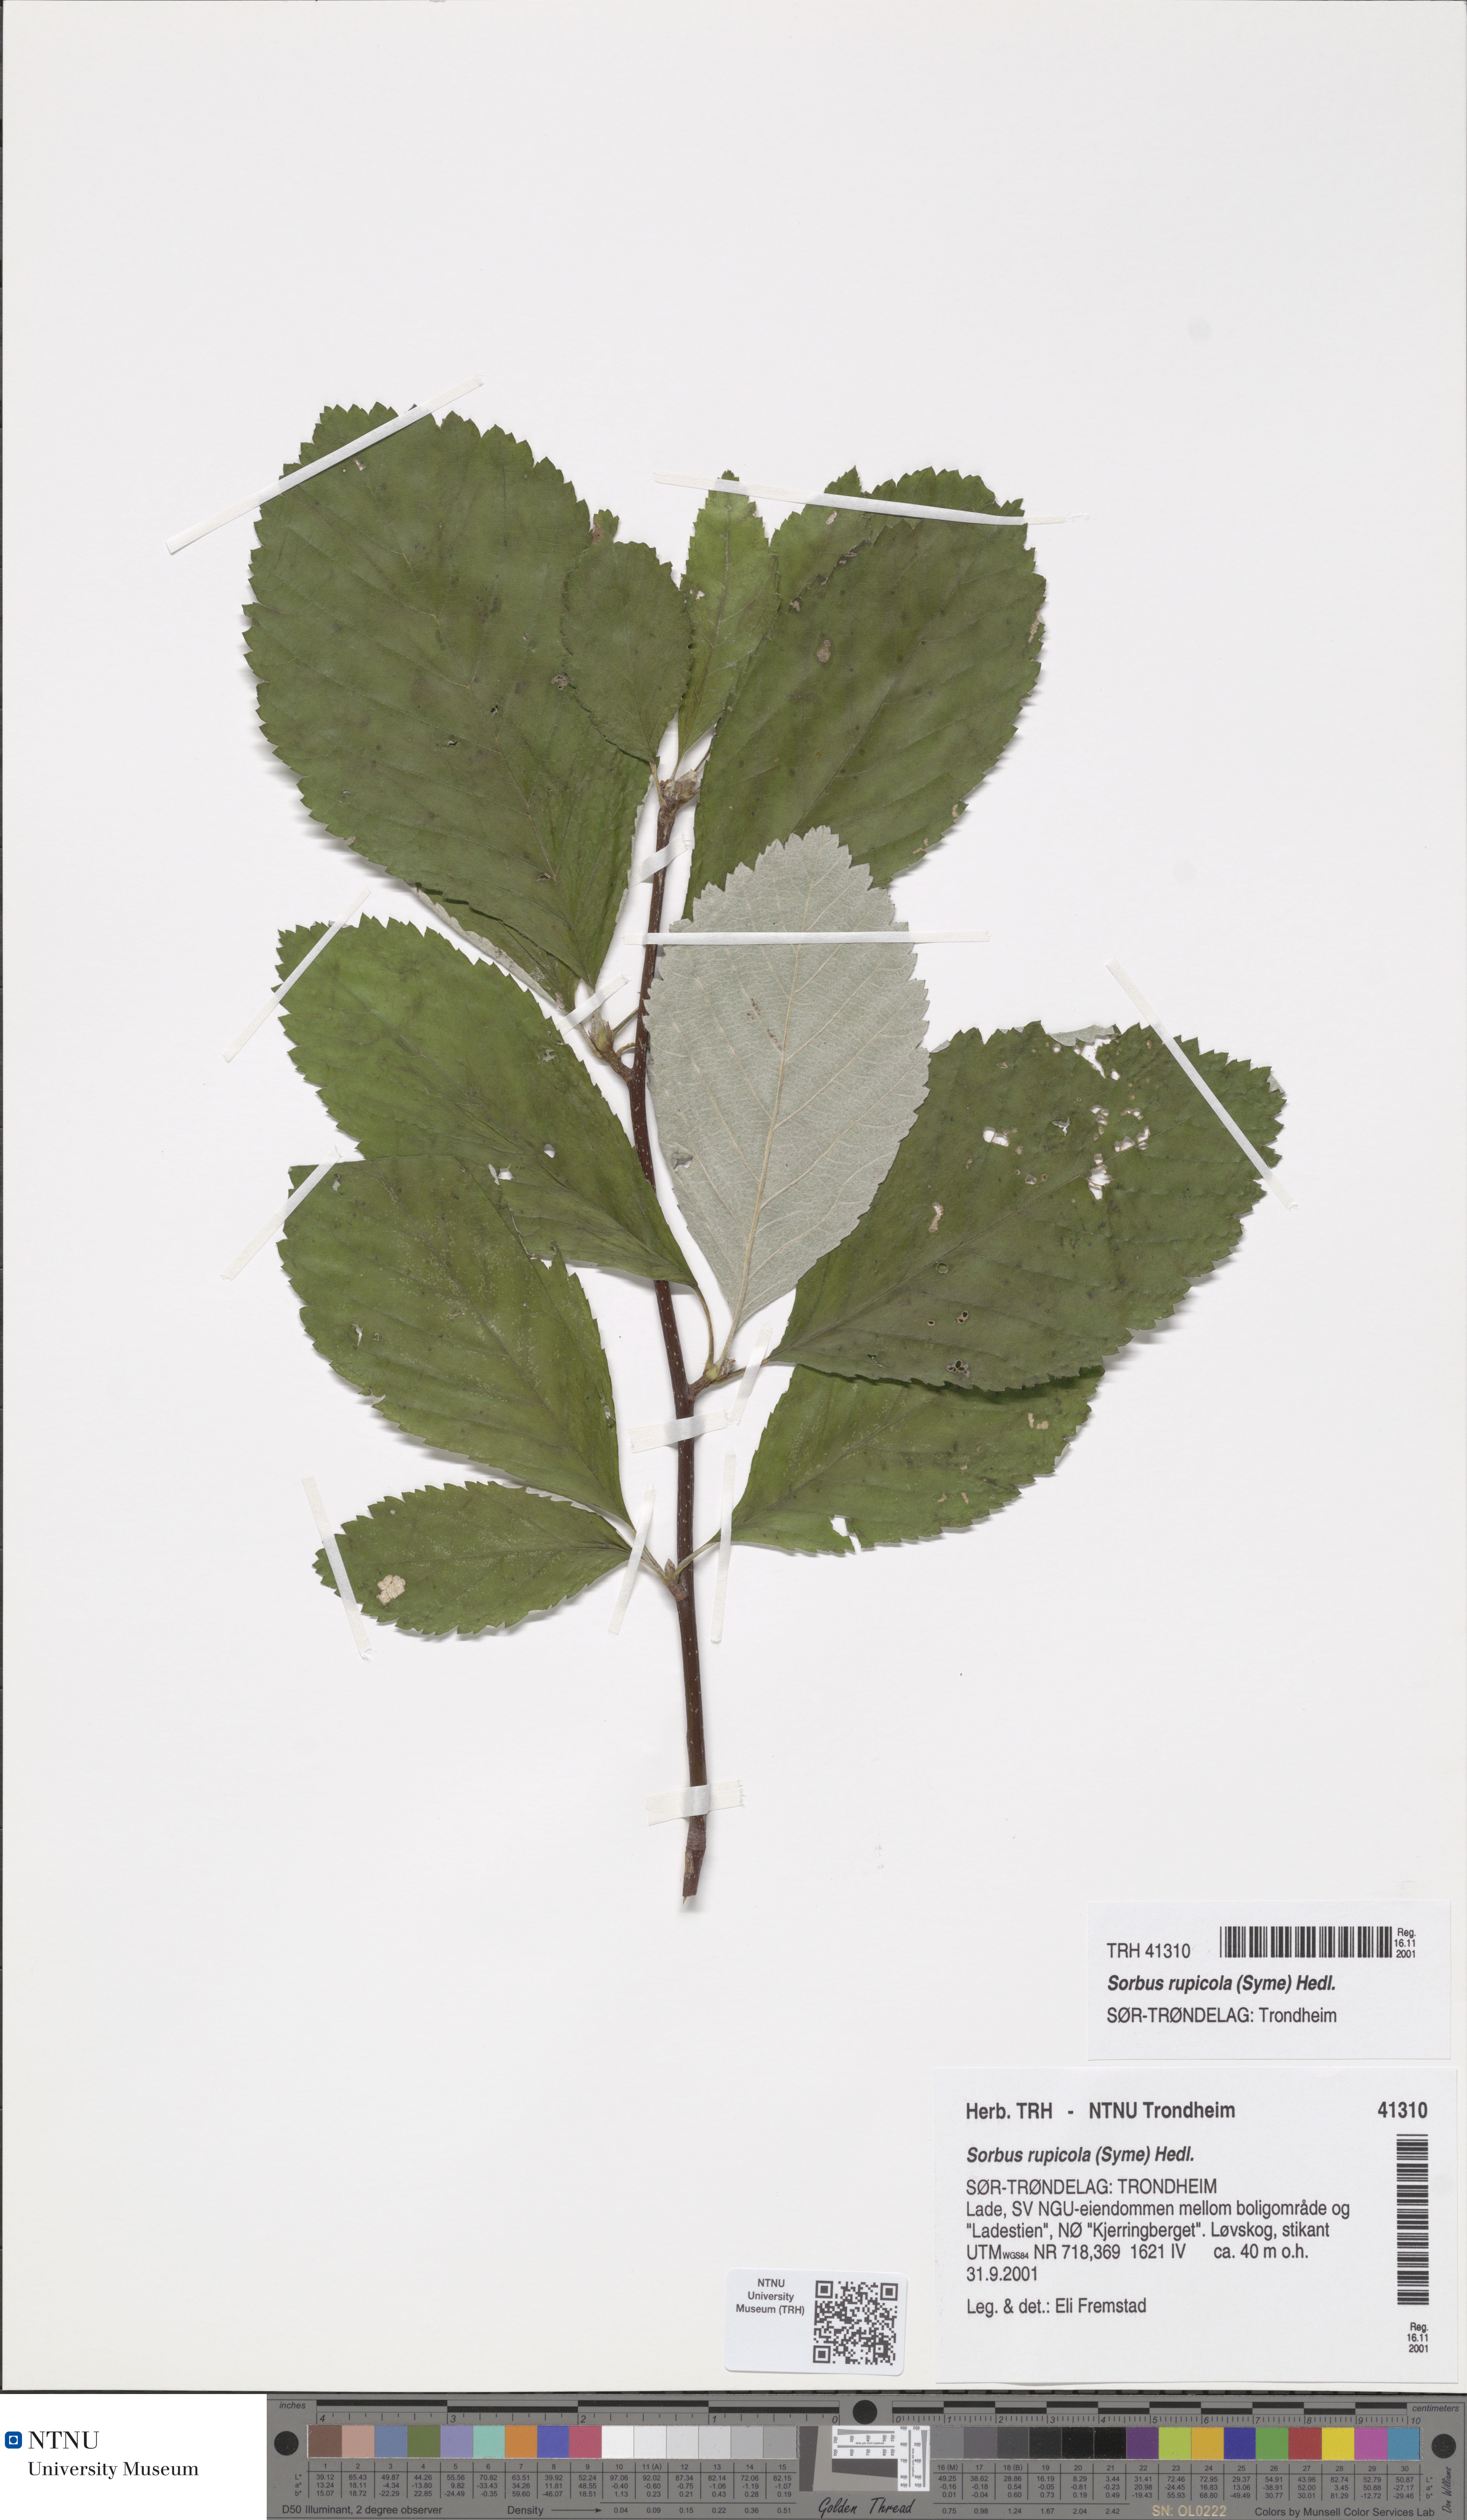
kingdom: Plantae
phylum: Tracheophyta
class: Magnoliopsida
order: Rosales
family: Rosaceae
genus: Aria
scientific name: Aria rupicola
